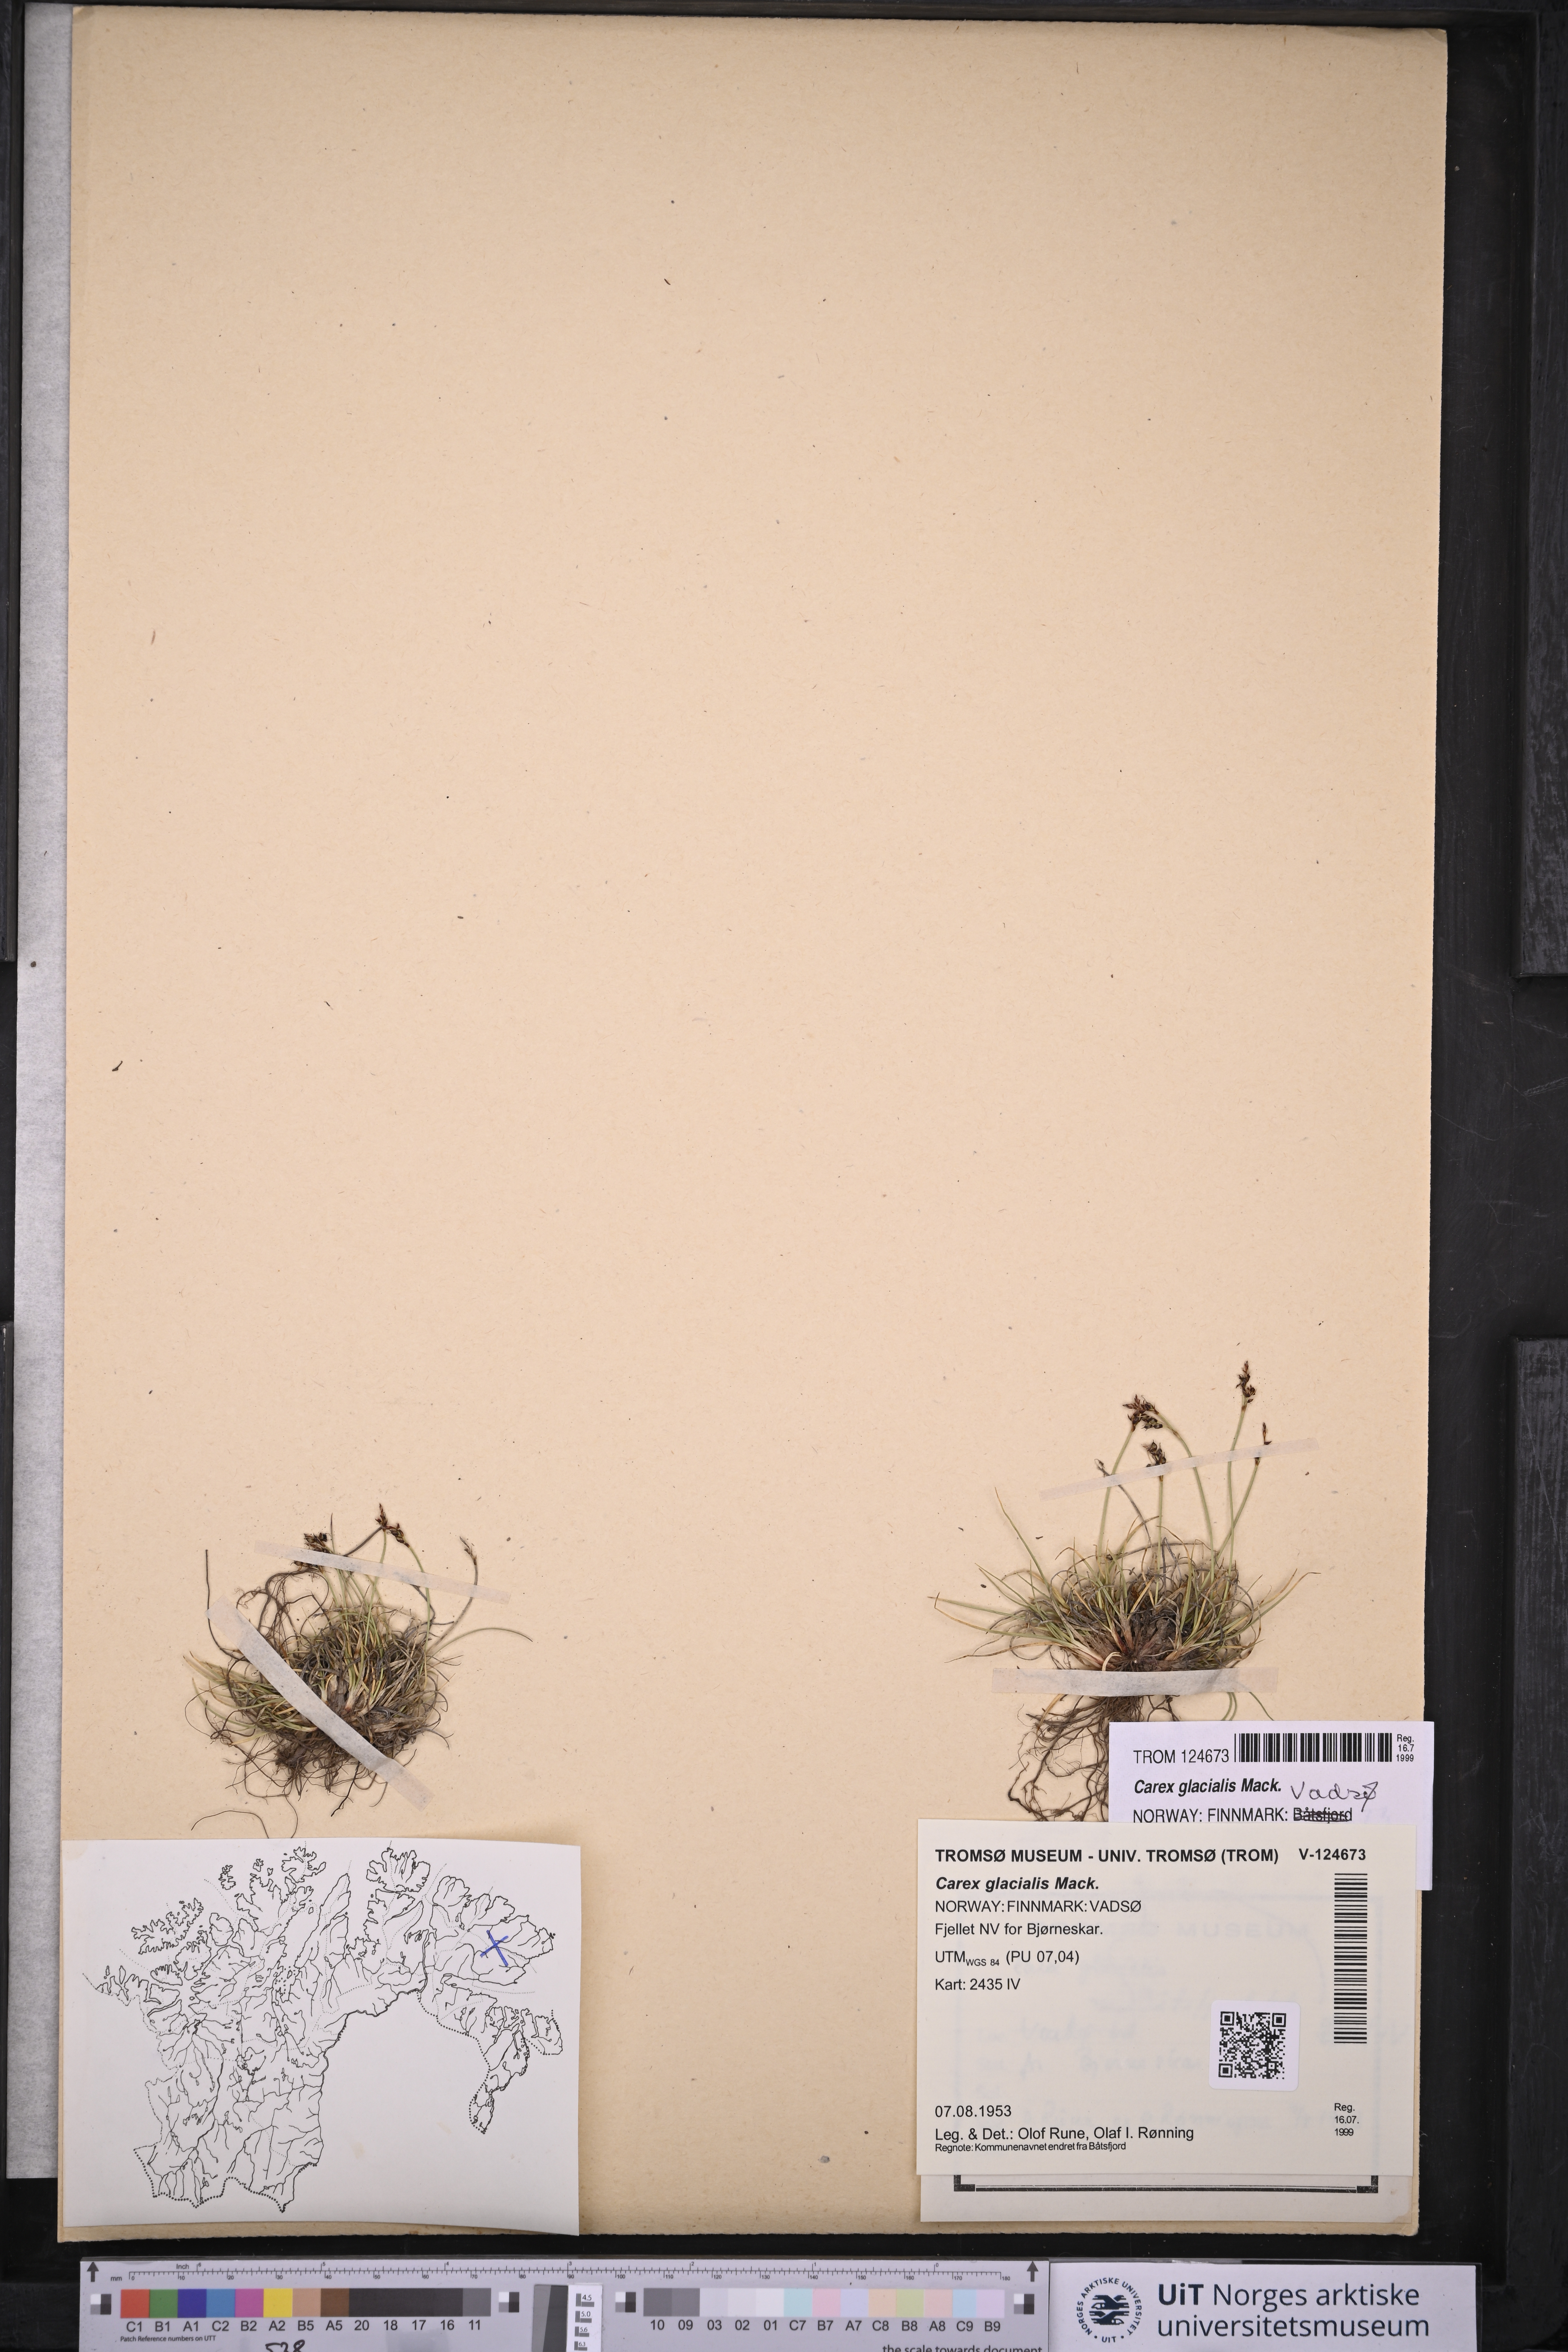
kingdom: Plantae
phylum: Tracheophyta
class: Liliopsida
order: Poales
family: Cyperaceae
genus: Carex
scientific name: Carex glacialis
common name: Newfoundland sedge
